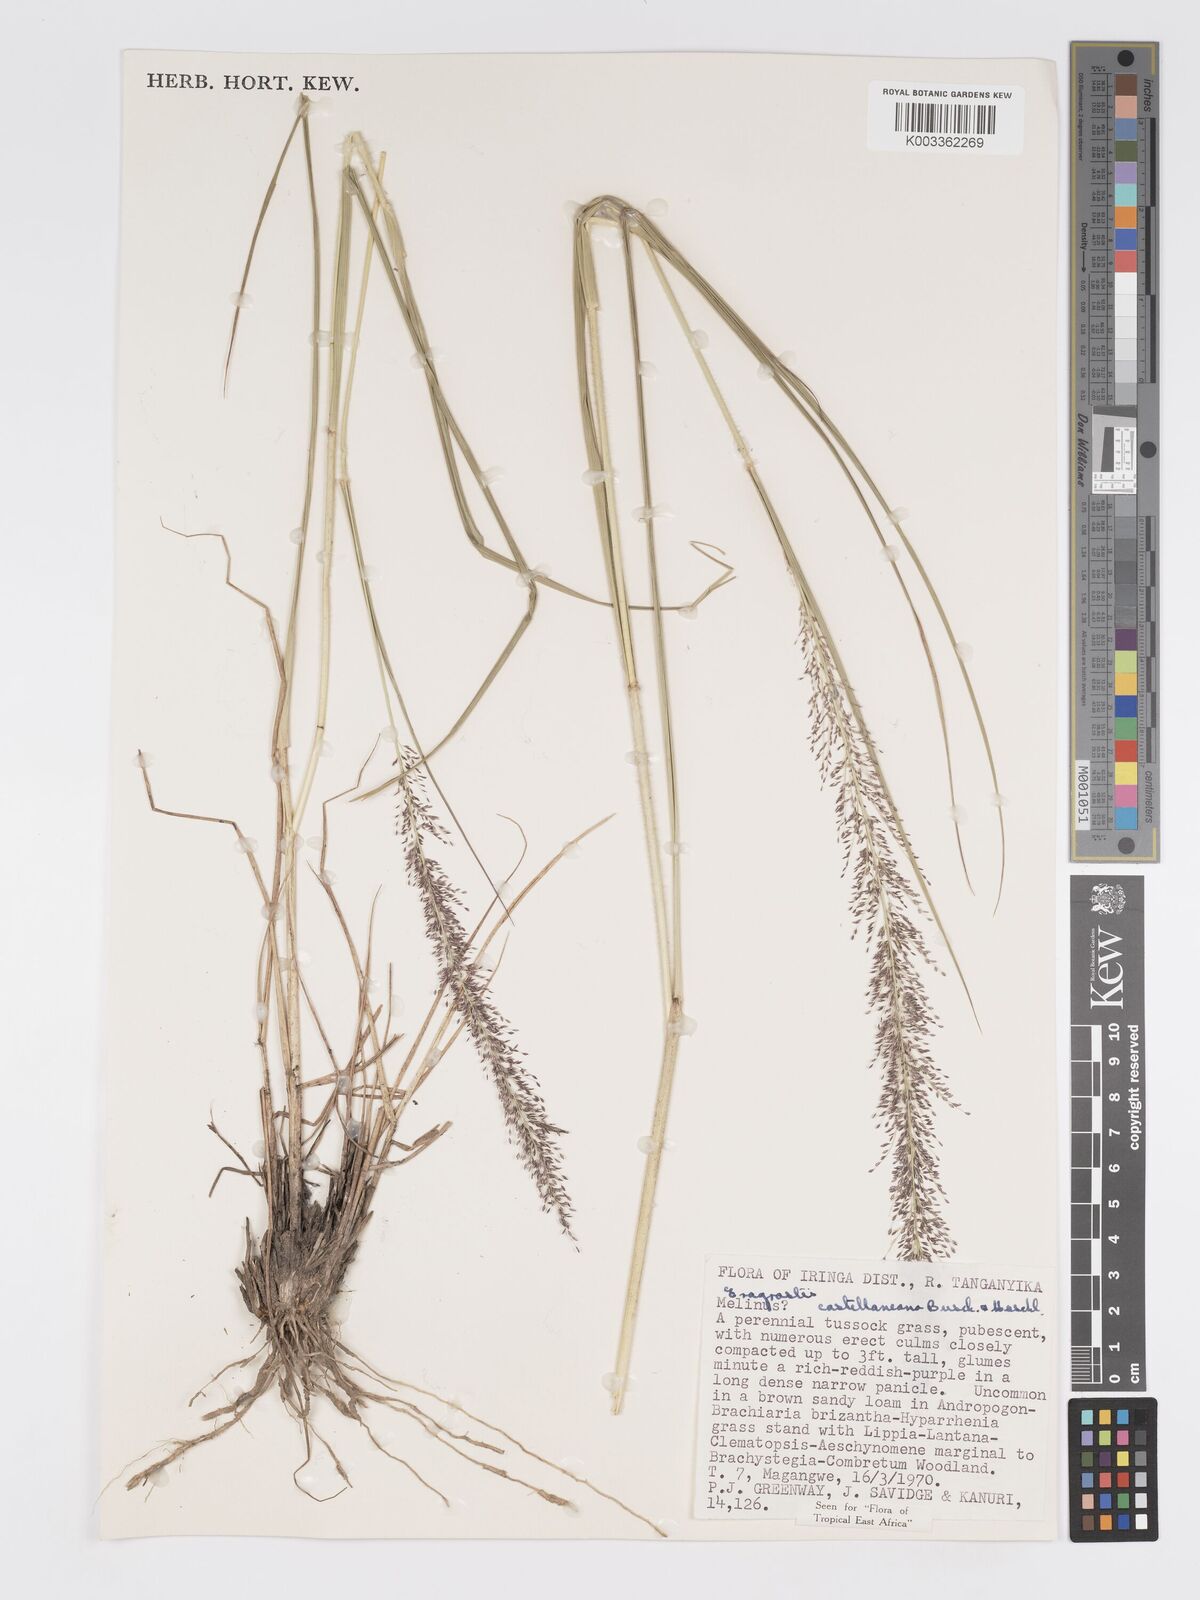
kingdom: Plantae
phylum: Tracheophyta
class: Liliopsida
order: Poales
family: Poaceae
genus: Eragrostis
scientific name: Eragrostis castellaneana
